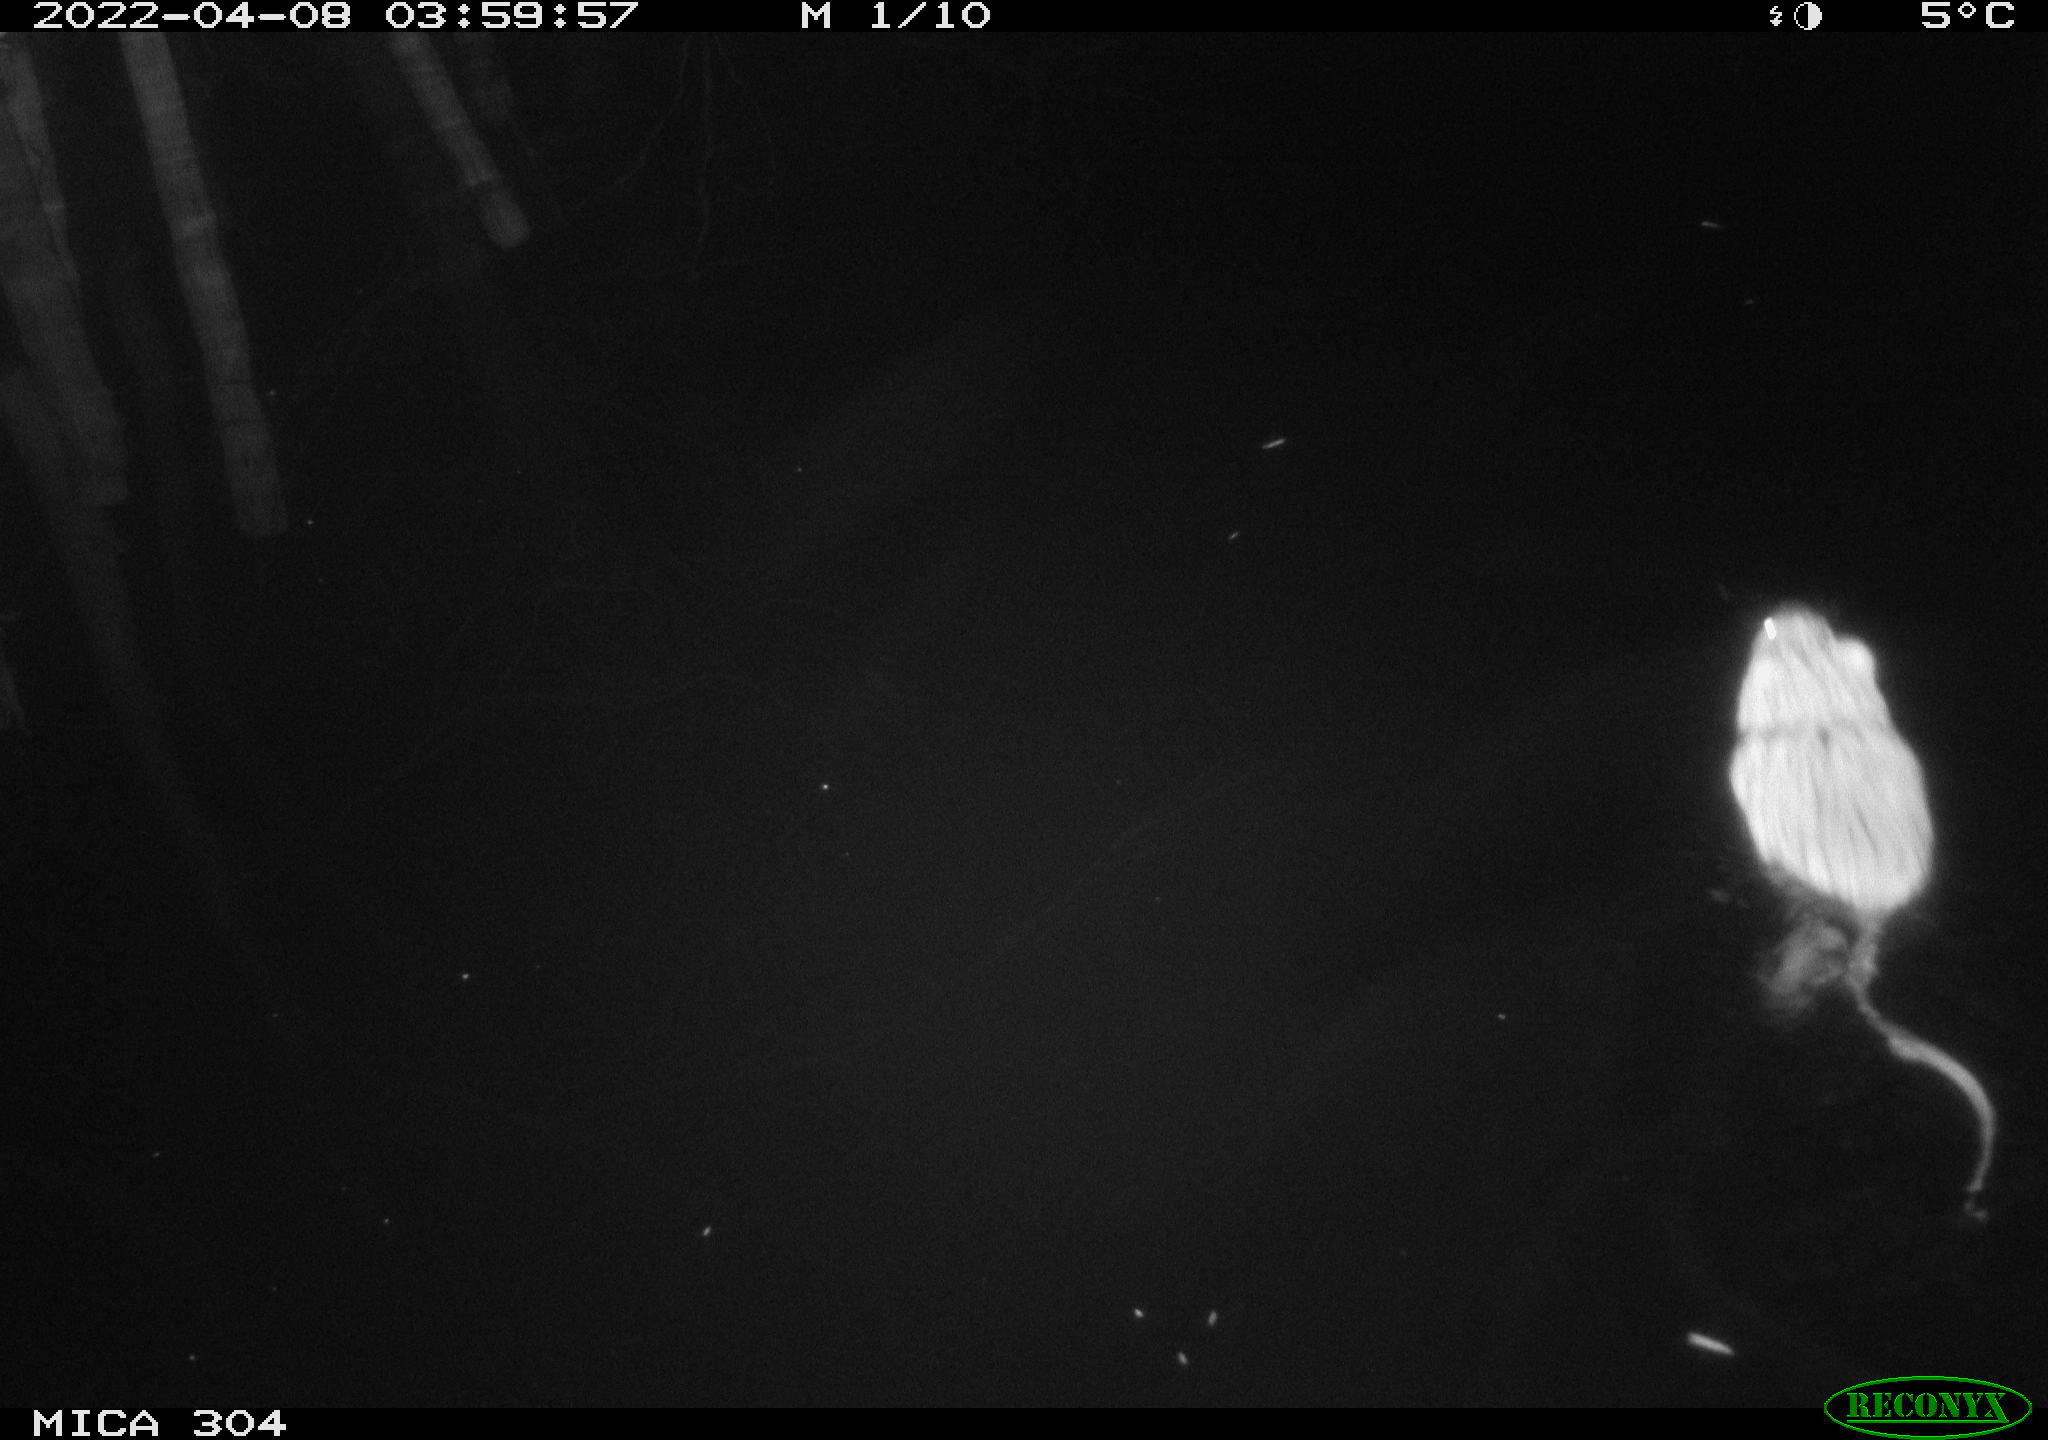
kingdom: Animalia
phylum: Chordata
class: Mammalia
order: Rodentia
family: Cricetidae
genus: Ondatra
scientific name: Ondatra zibethicus
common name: Muskrat
